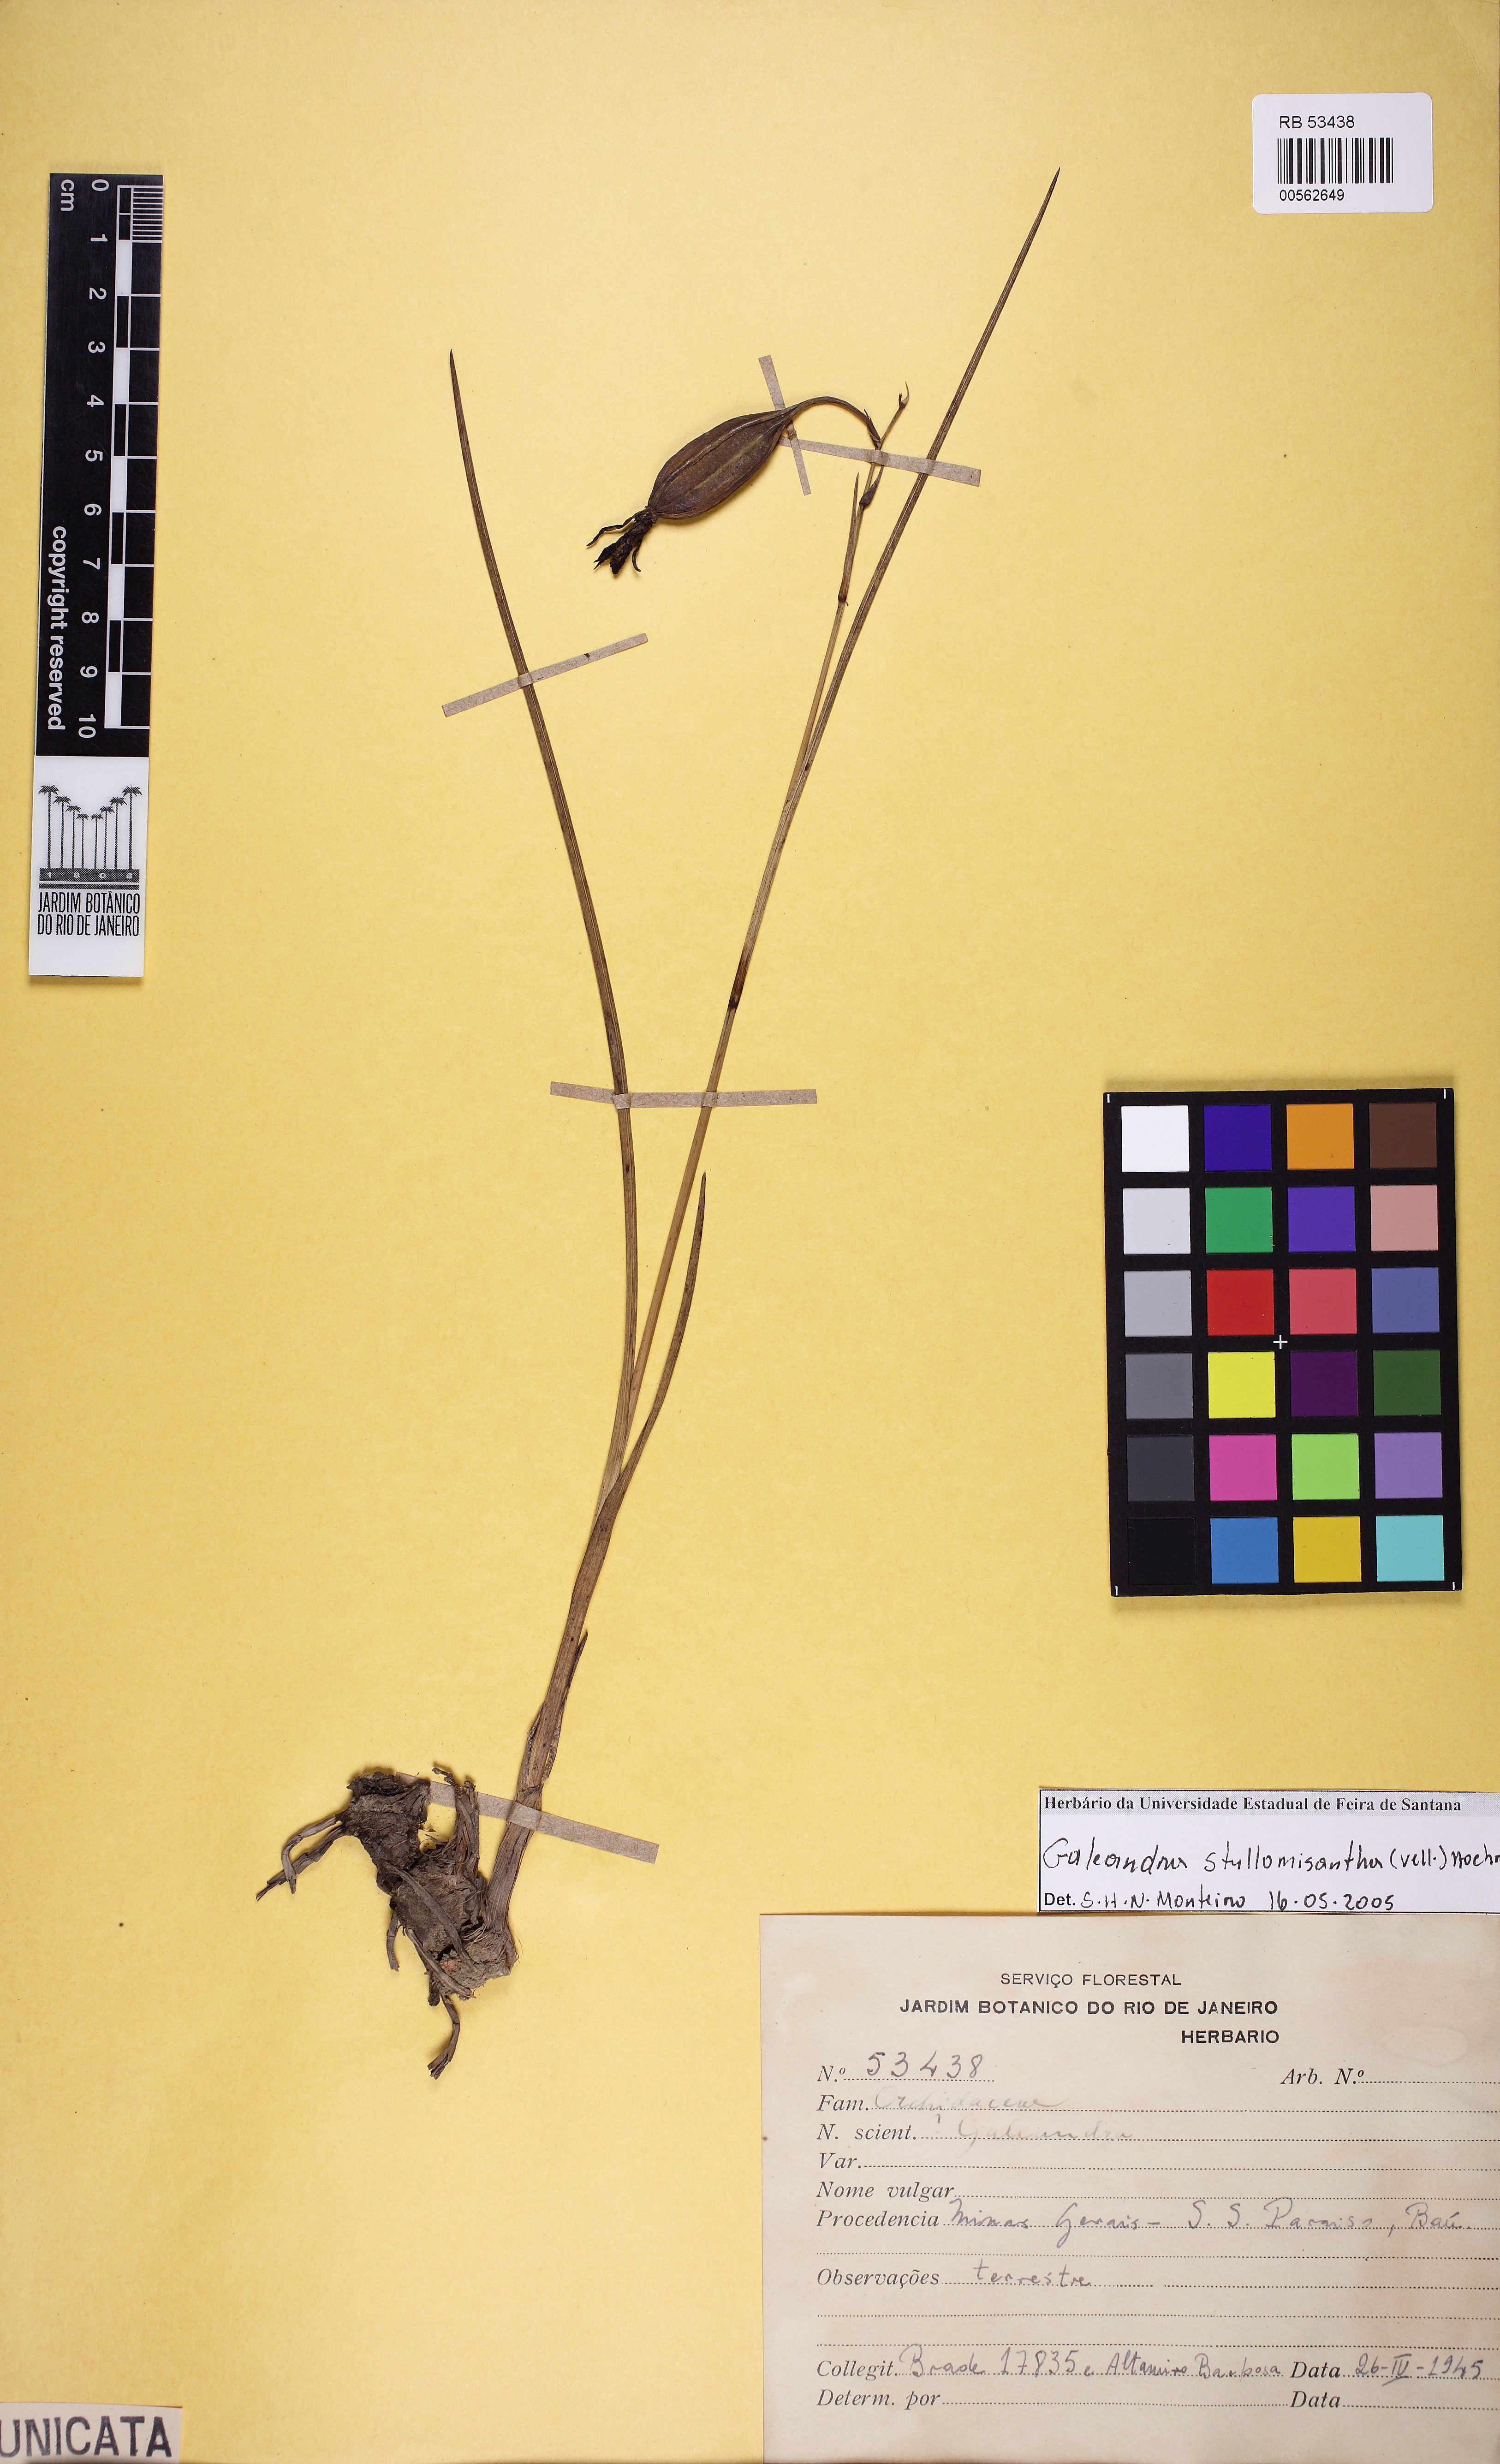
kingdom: Plantae
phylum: Tracheophyta
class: Liliopsida
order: Asparagales
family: Orchidaceae
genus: Galeandra
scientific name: Galeandra styllomisantha
